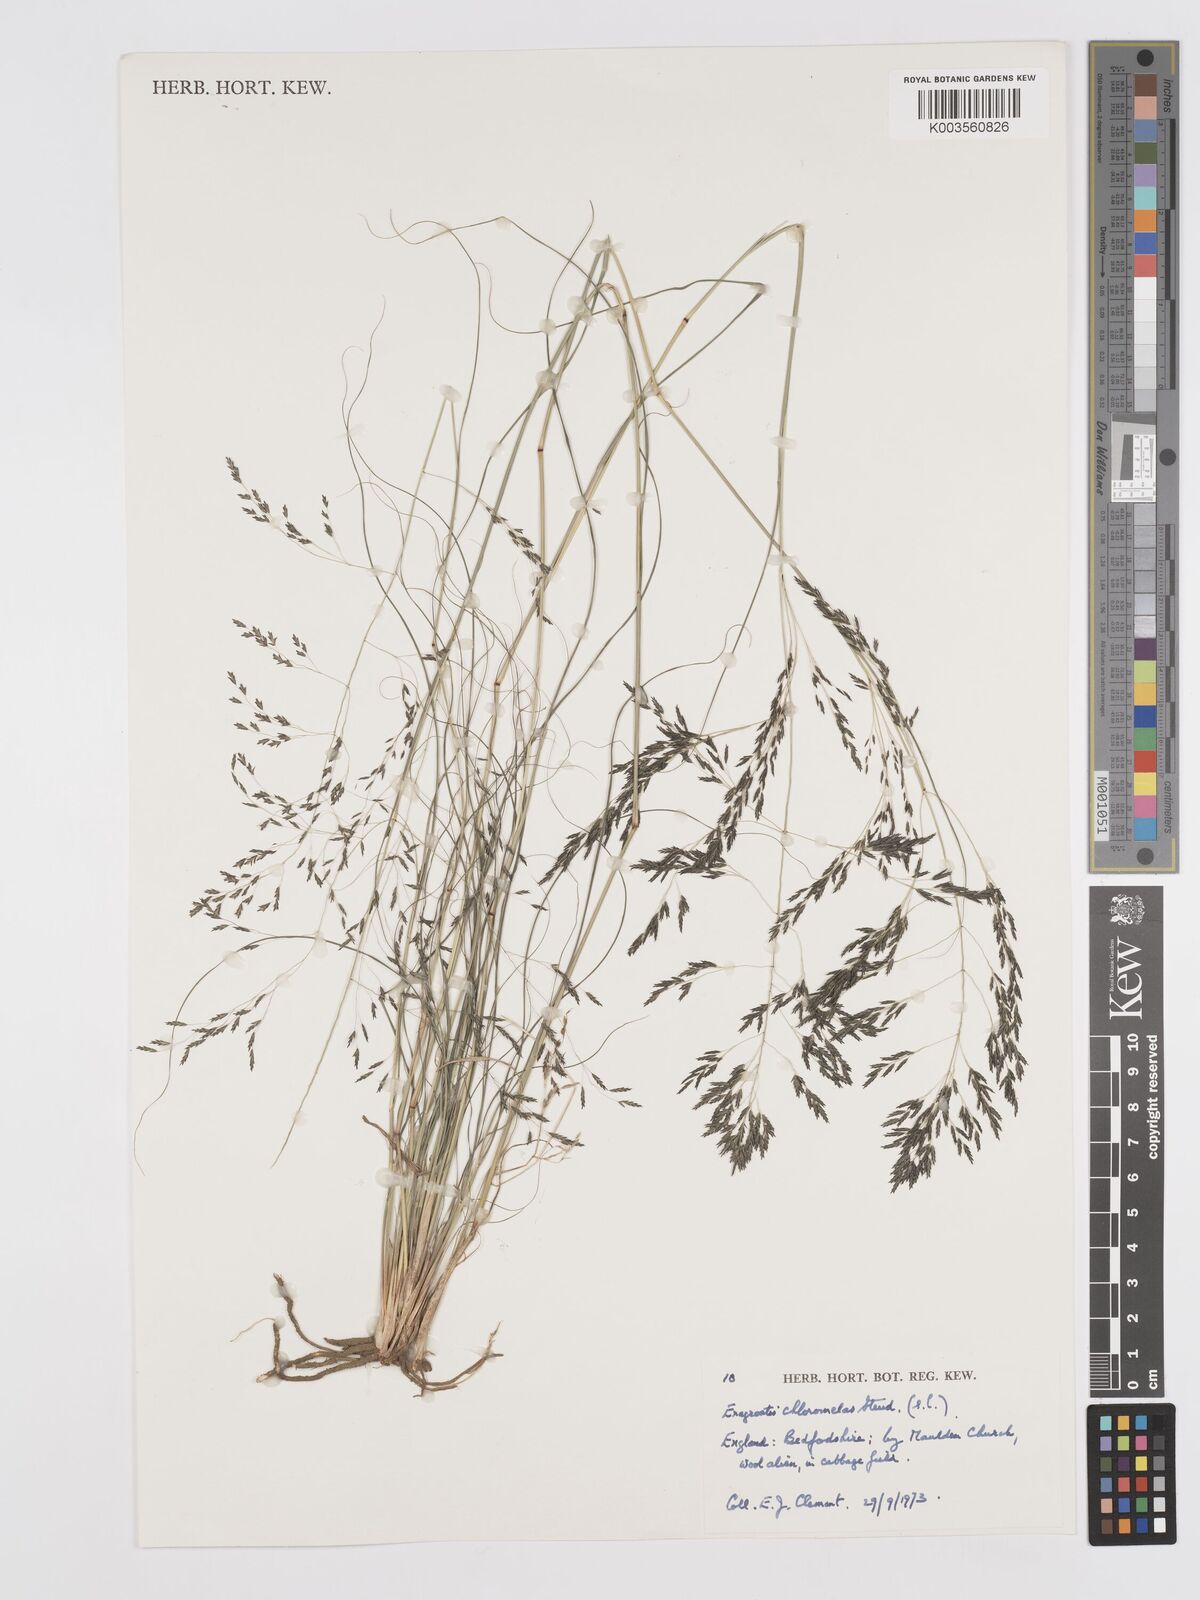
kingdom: Plantae
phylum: Tracheophyta
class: Liliopsida
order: Poales
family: Poaceae
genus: Eragrostis
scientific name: Eragrostis curvula
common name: African love-grass
